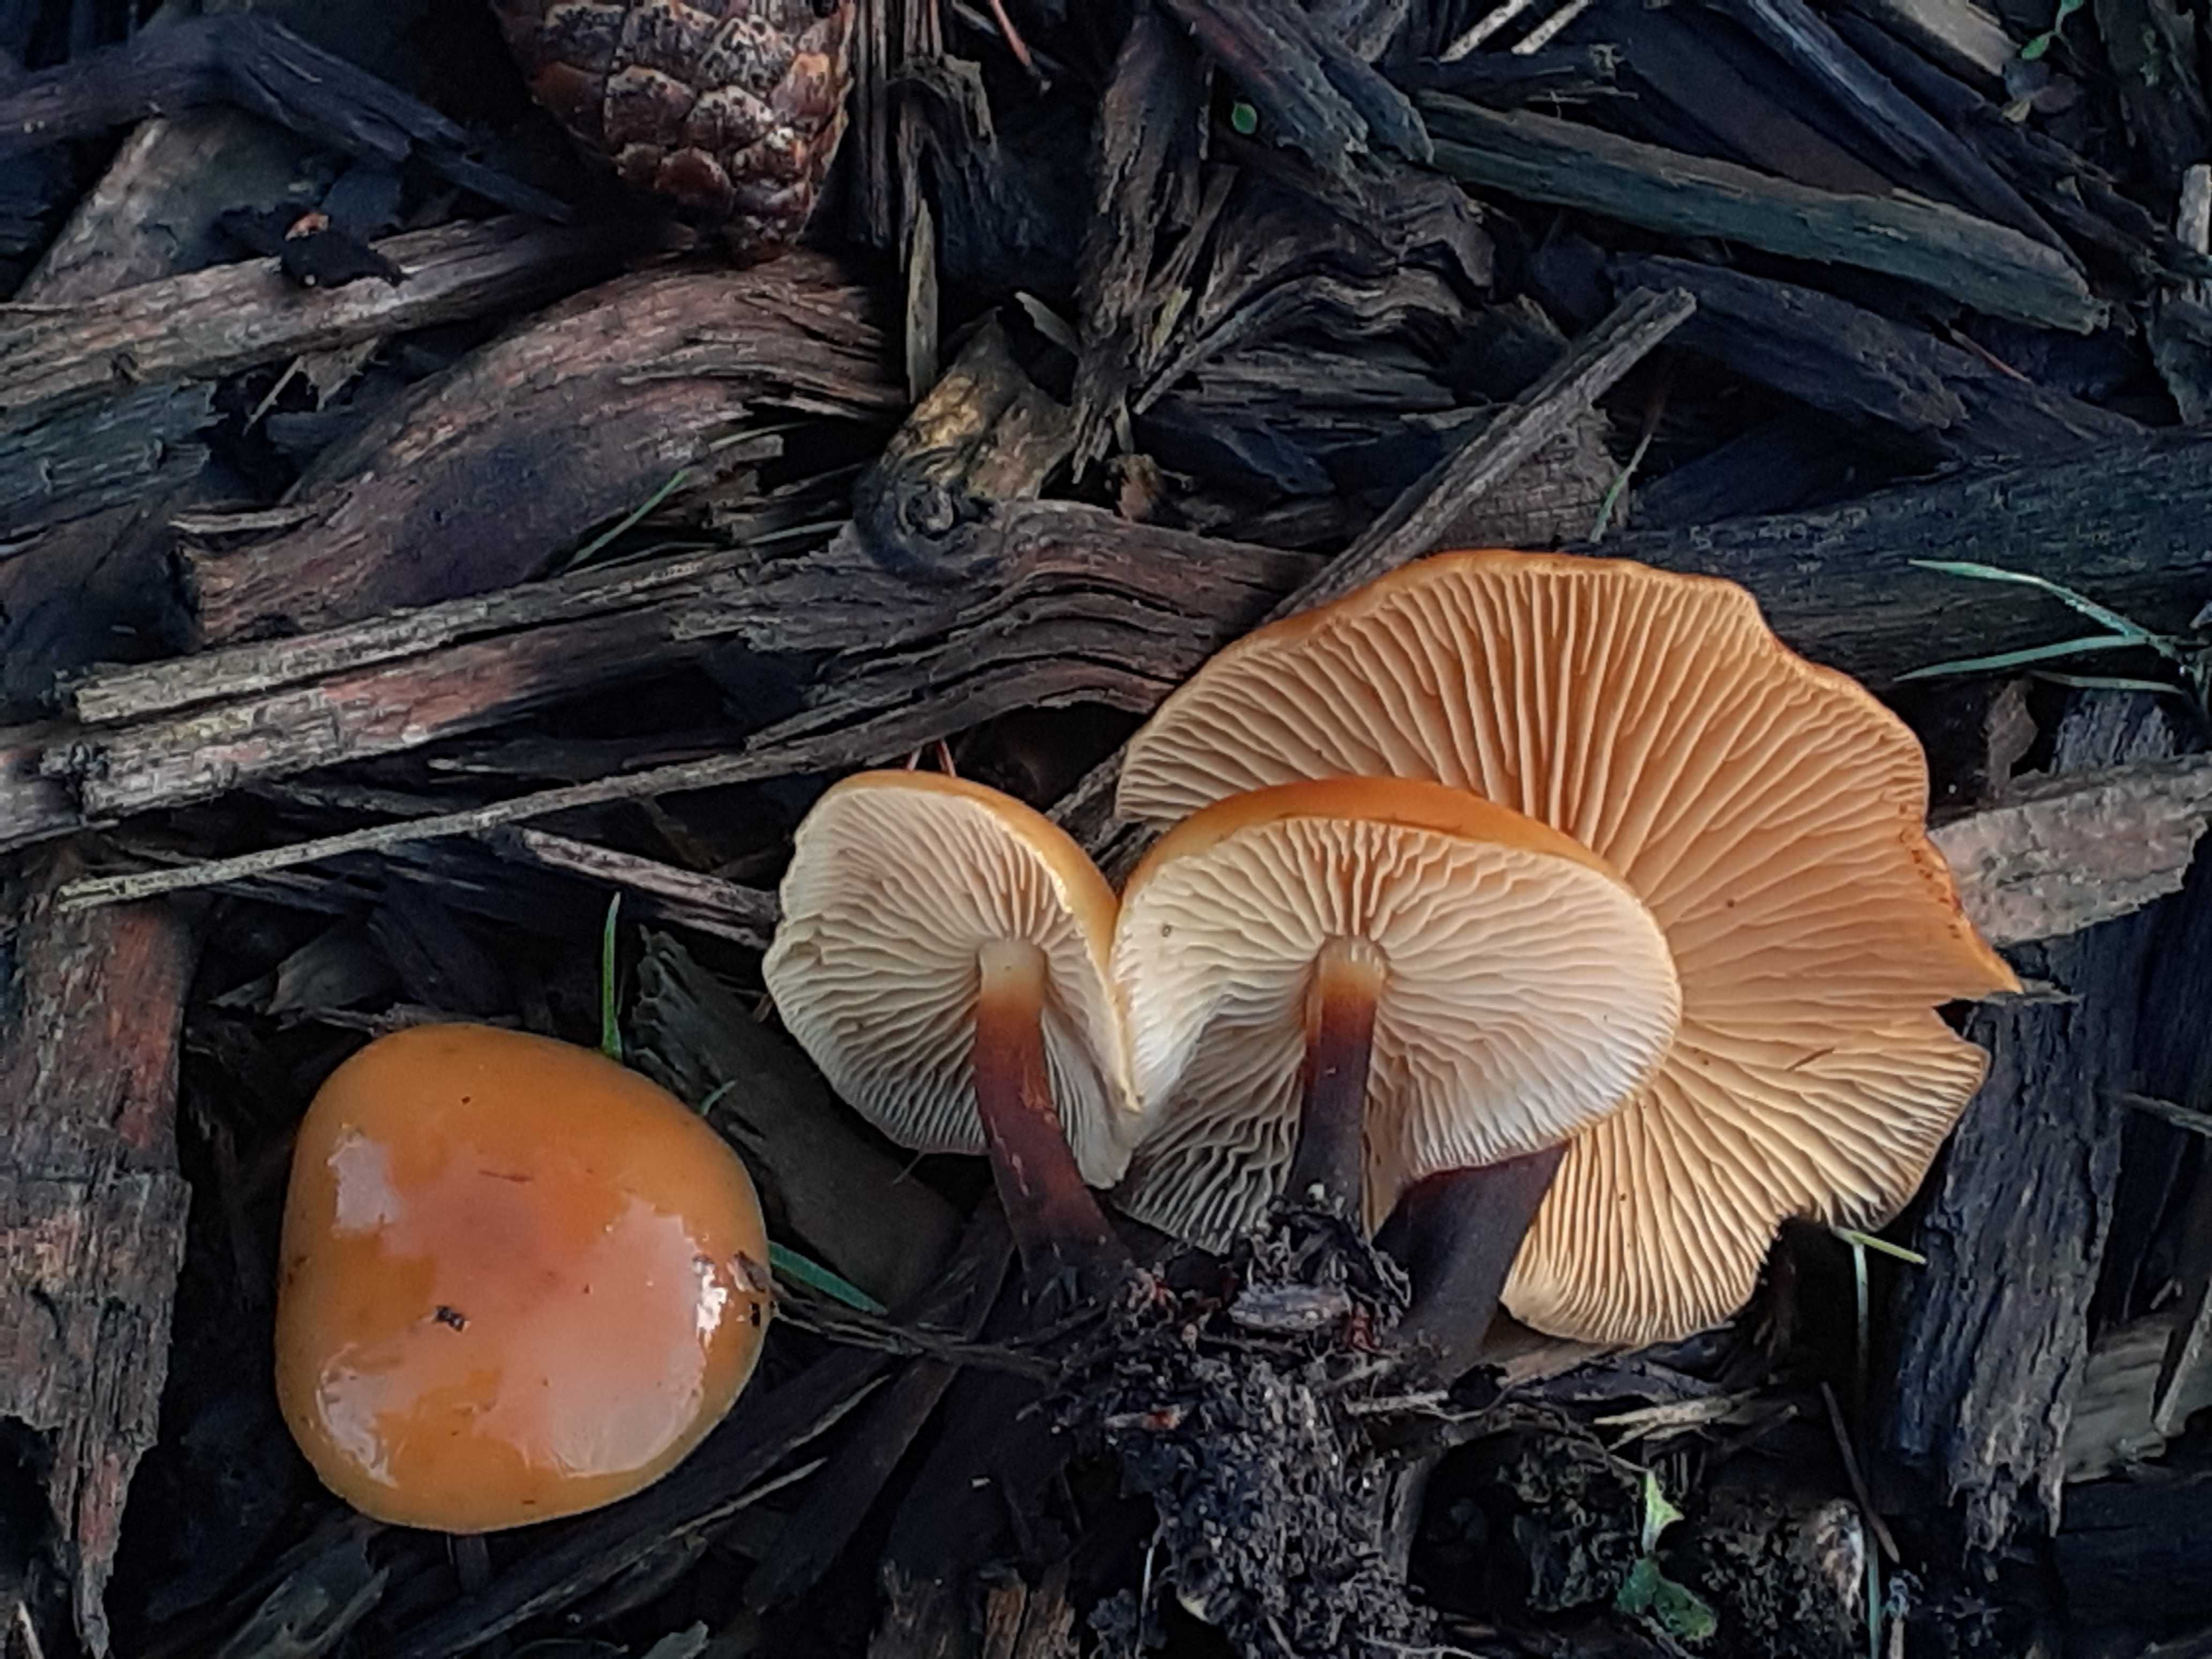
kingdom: Fungi
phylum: Basidiomycota
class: Agaricomycetes
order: Agaricales
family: Physalacriaceae
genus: Flammulina
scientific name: Flammulina elastica
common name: pile-fløjlsfod
